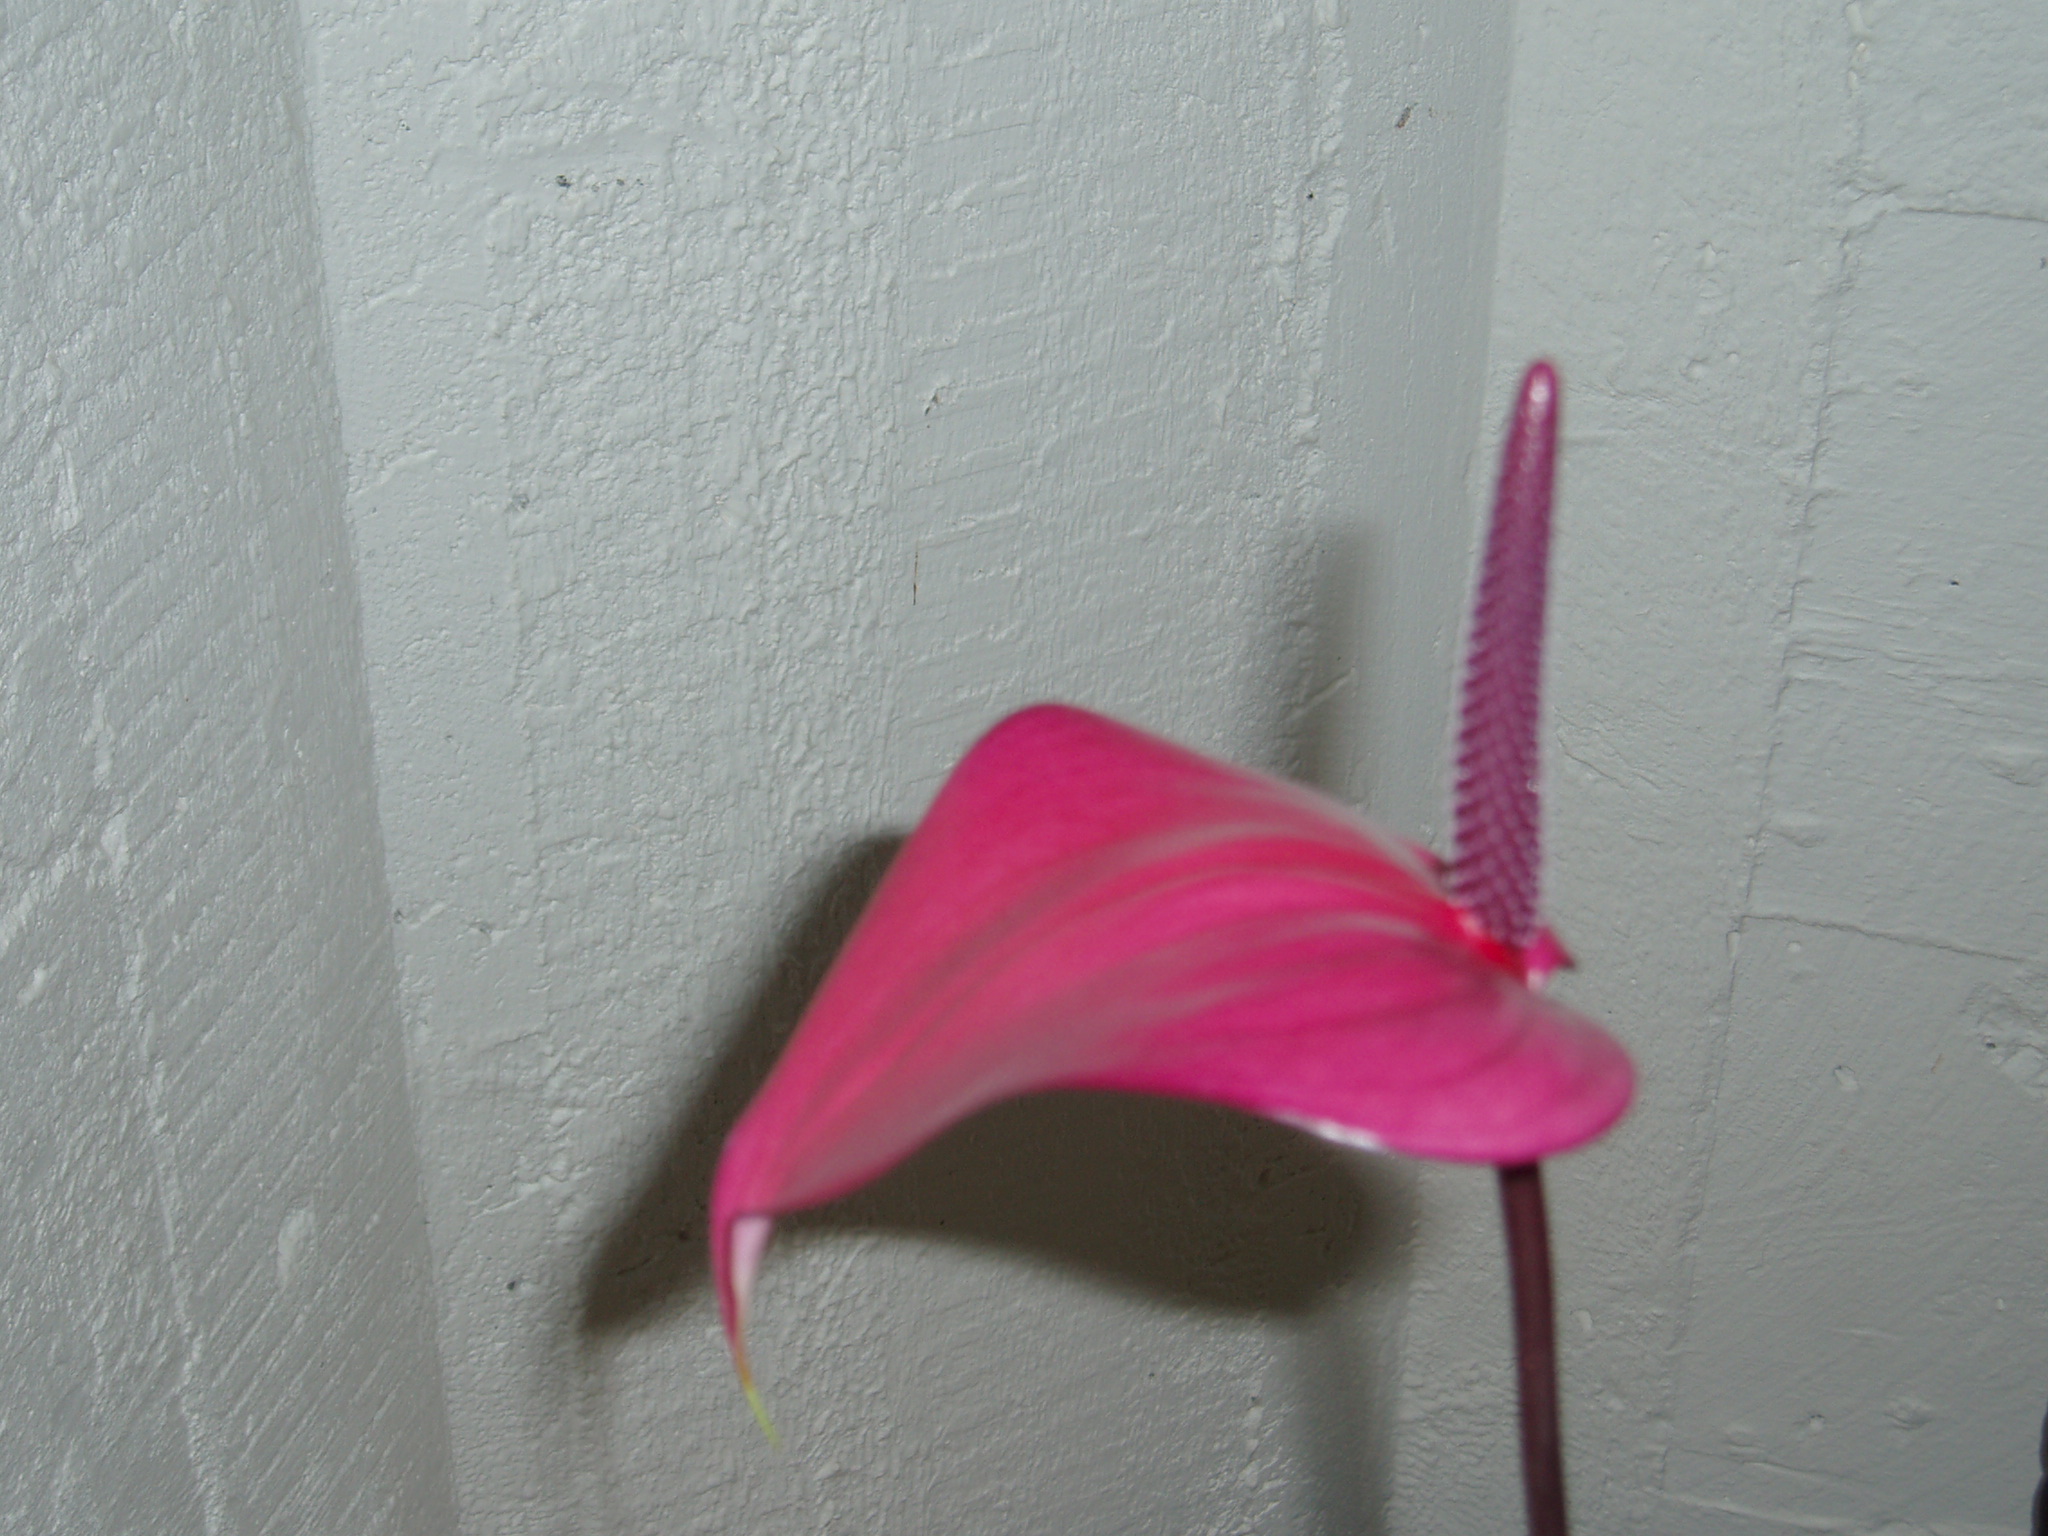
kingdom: Plantae
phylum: Tracheophyta
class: Liliopsida
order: Alismatales
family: Araceae
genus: Anthurium
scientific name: Anthurium
